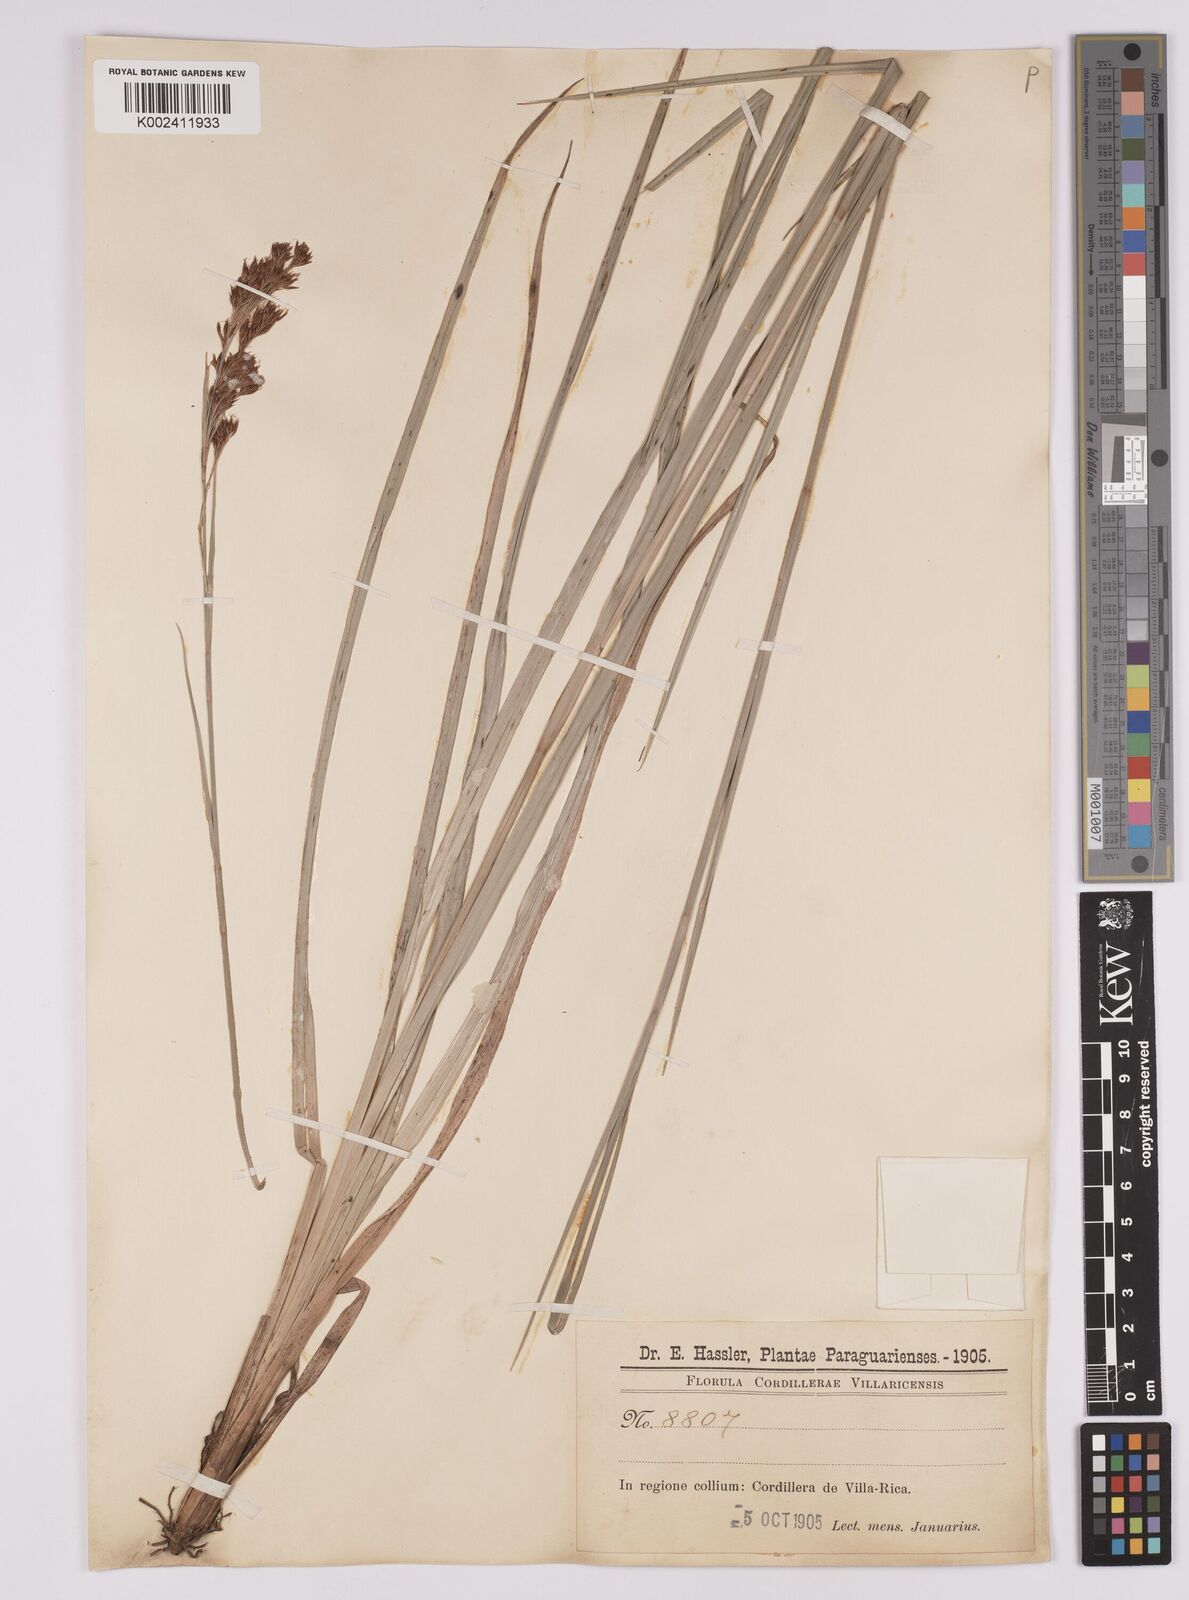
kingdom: Plantae
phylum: Tracheophyta
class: Liliopsida
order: Poales
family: Cyperaceae
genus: Rhynchospora
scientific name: Rhynchospora marisculus
